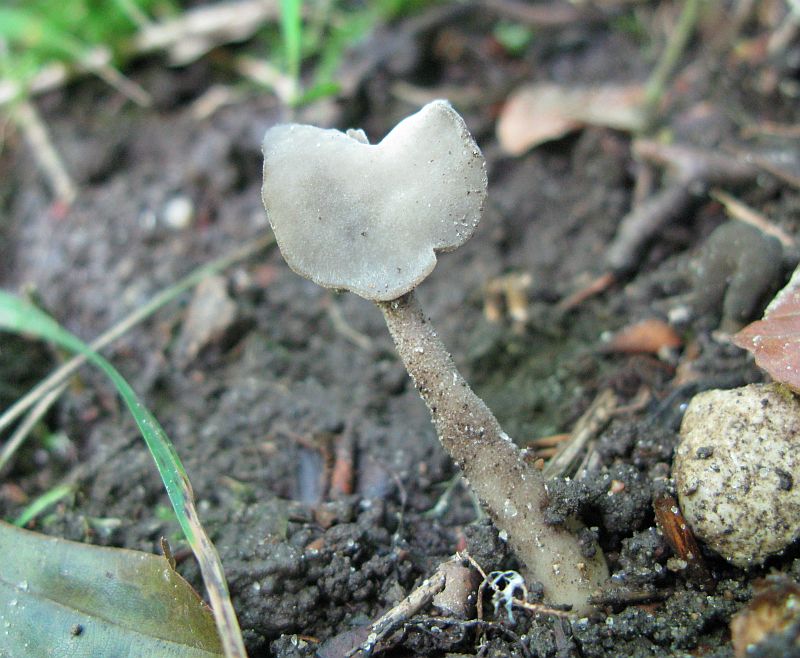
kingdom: Fungi
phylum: Ascomycota
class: Sordariomycetes
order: Hypocreales
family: Hypocreaceae
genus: Hypomyces
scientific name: Hypomyces cervinus
